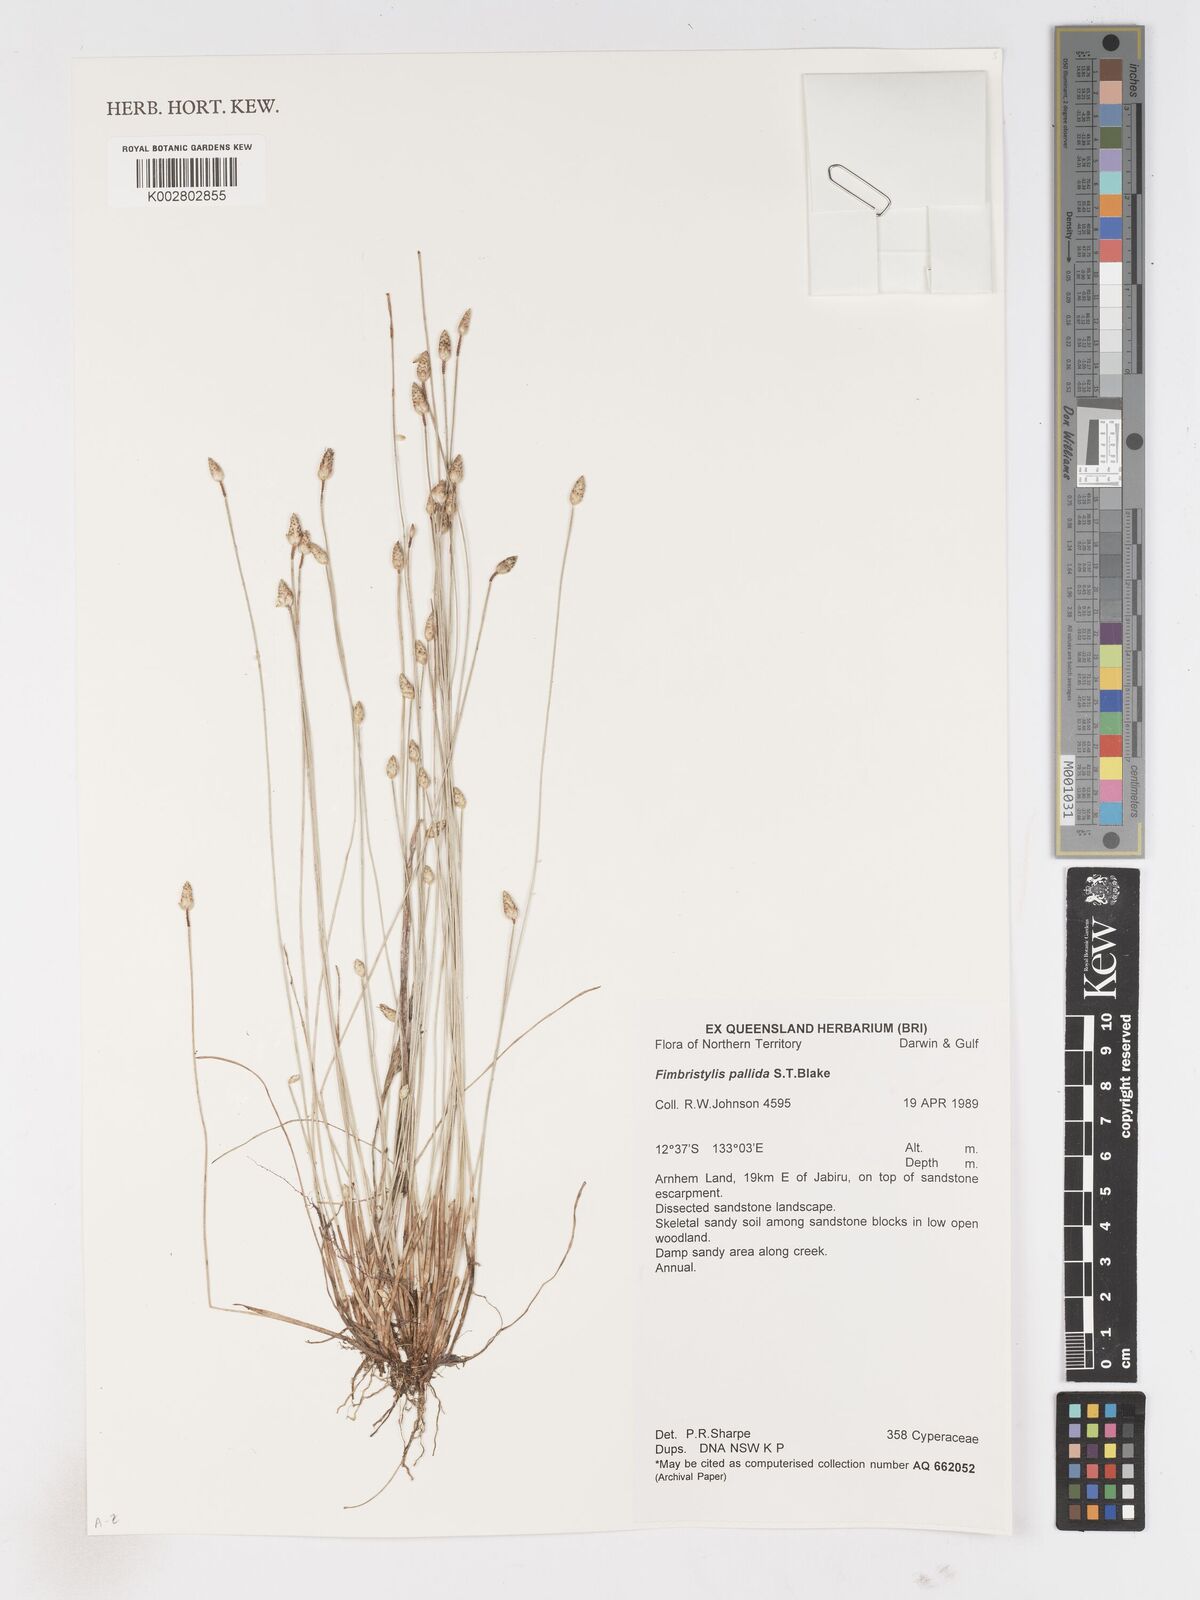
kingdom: Plantae
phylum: Tracheophyta
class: Liliopsida
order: Poales
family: Cyperaceae
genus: Fimbristylis
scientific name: Fimbristylis pallida
